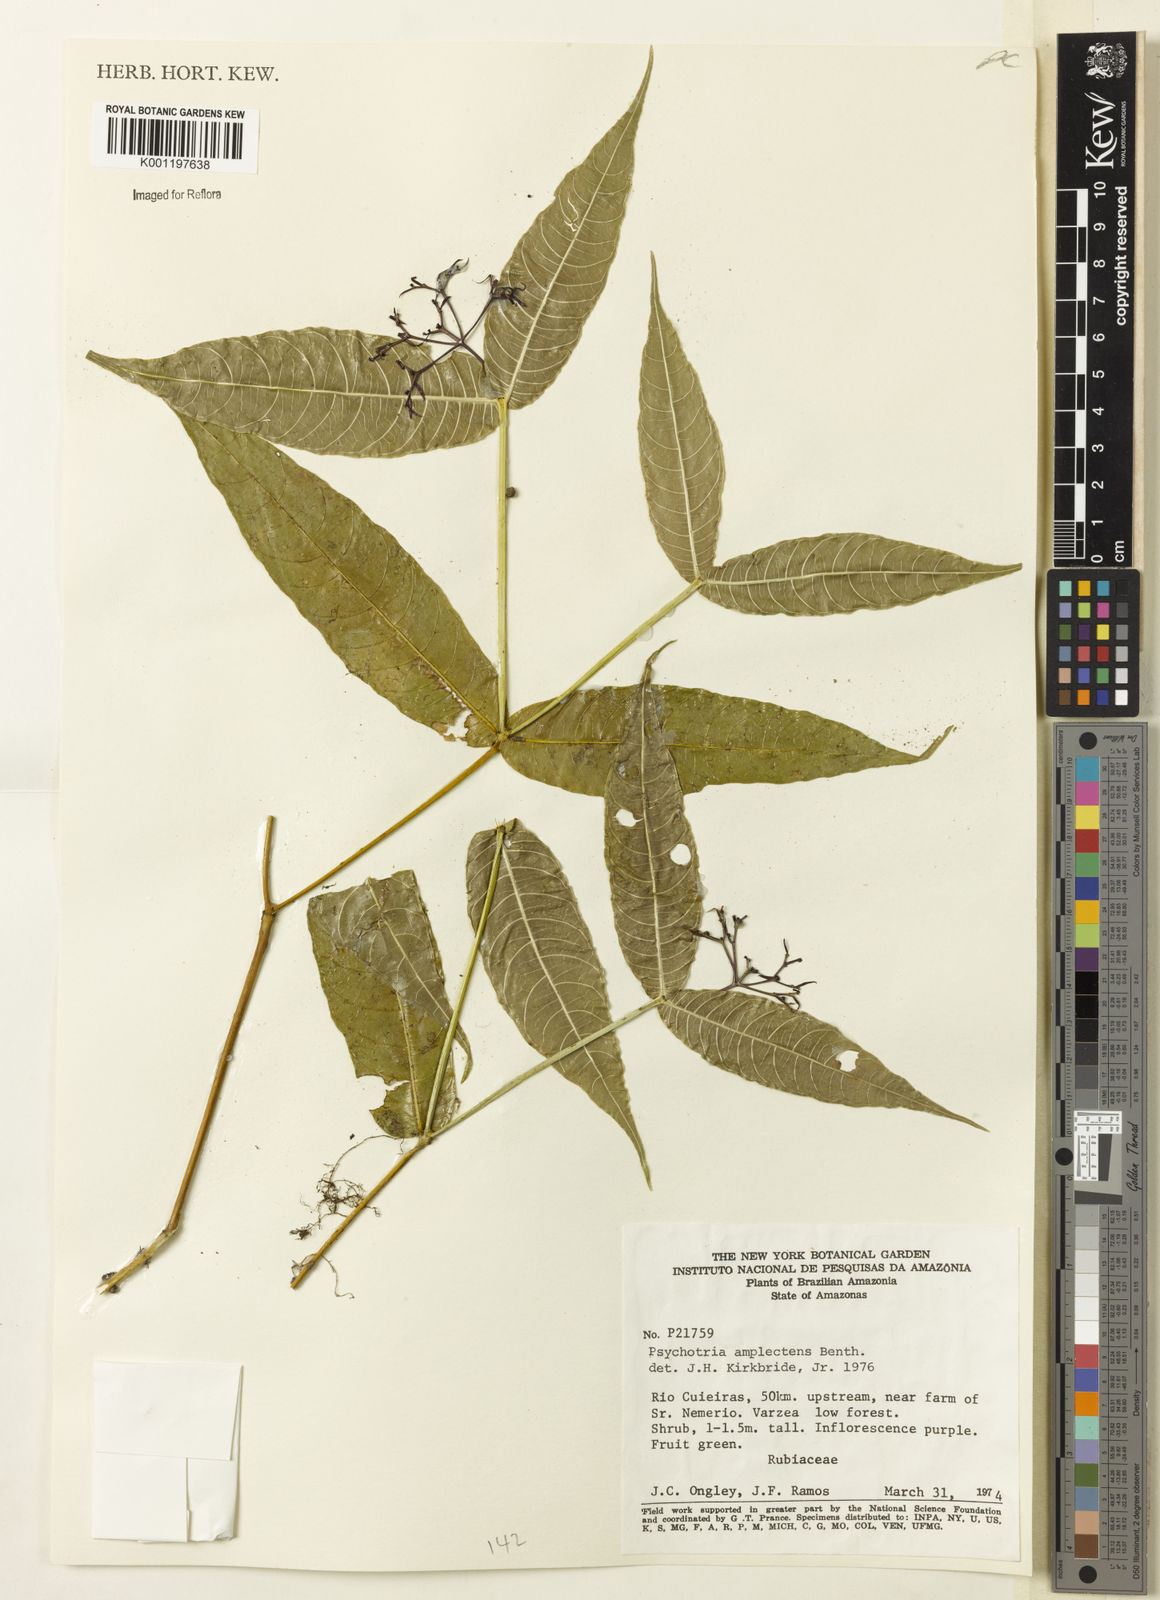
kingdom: Plantae
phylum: Tracheophyta
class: Magnoliopsida
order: Gentianales
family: Rubiaceae
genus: Psychotria
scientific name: Psychotria
